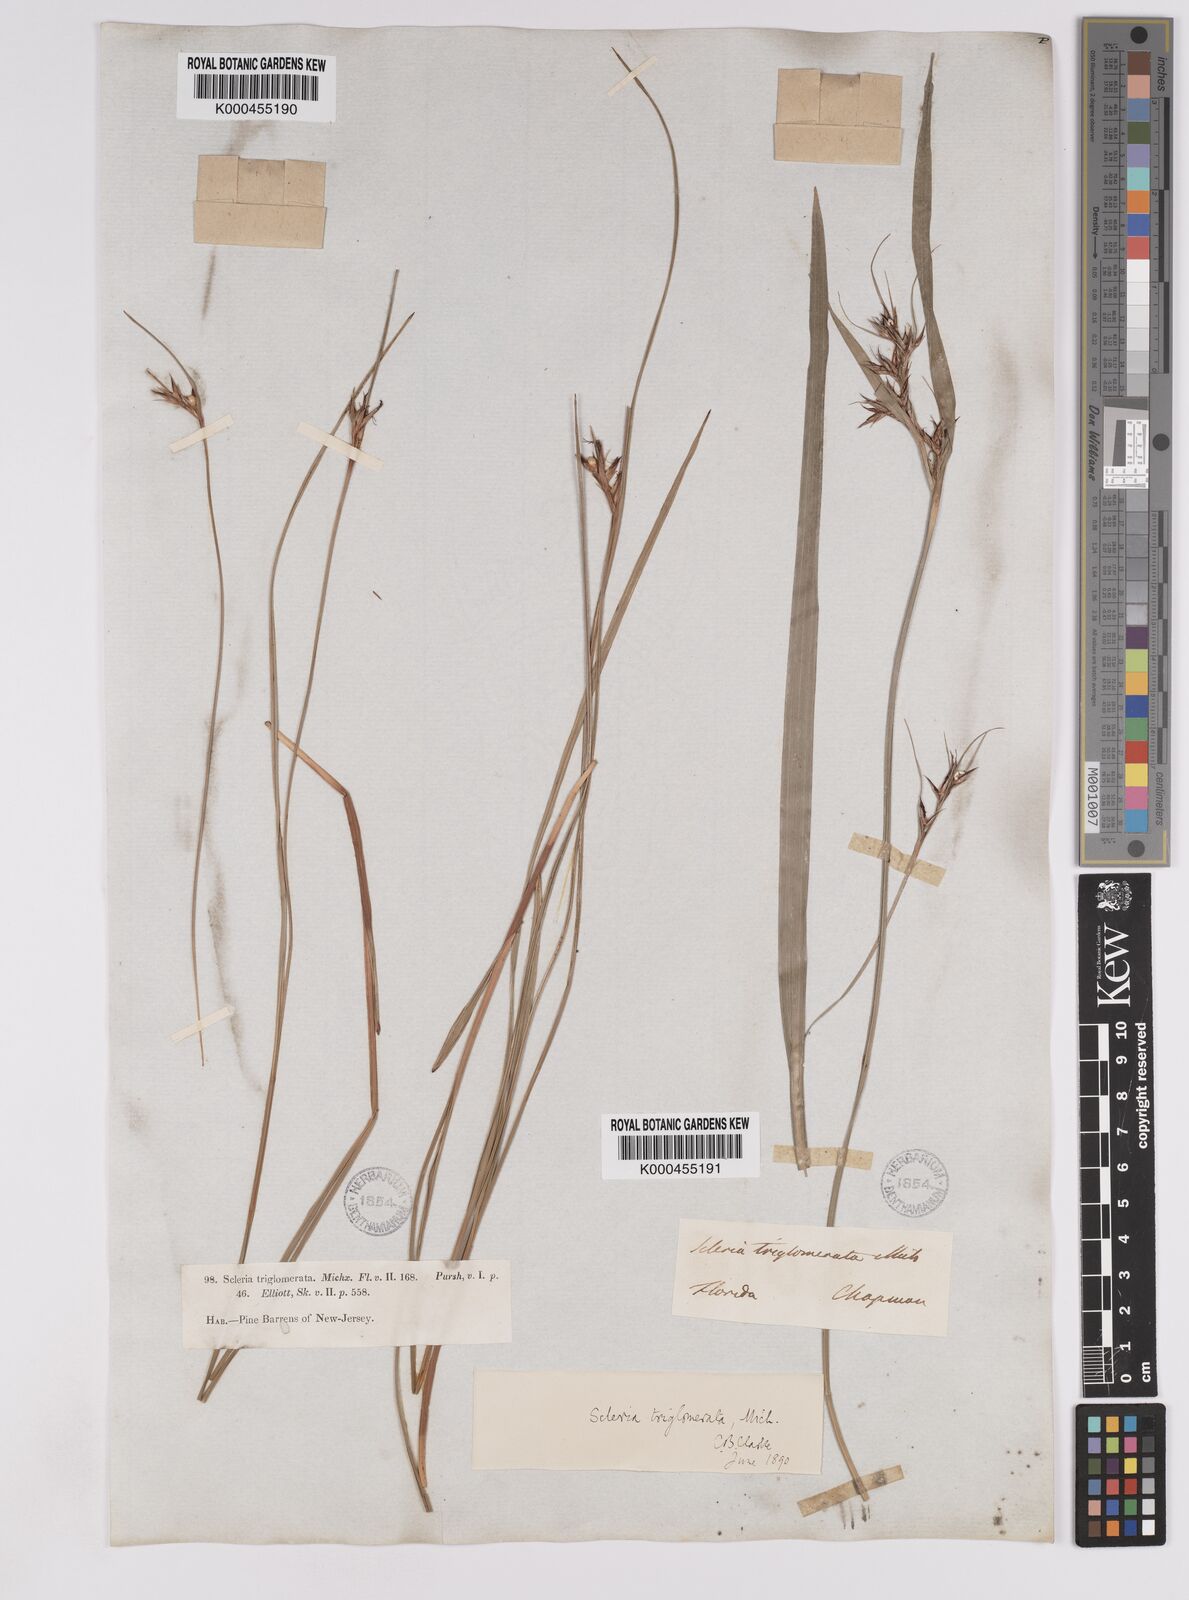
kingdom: Plantae
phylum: Tracheophyta
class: Liliopsida
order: Poales
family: Cyperaceae
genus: Scleria
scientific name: Scleria triglomerata
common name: Whip nutrush
